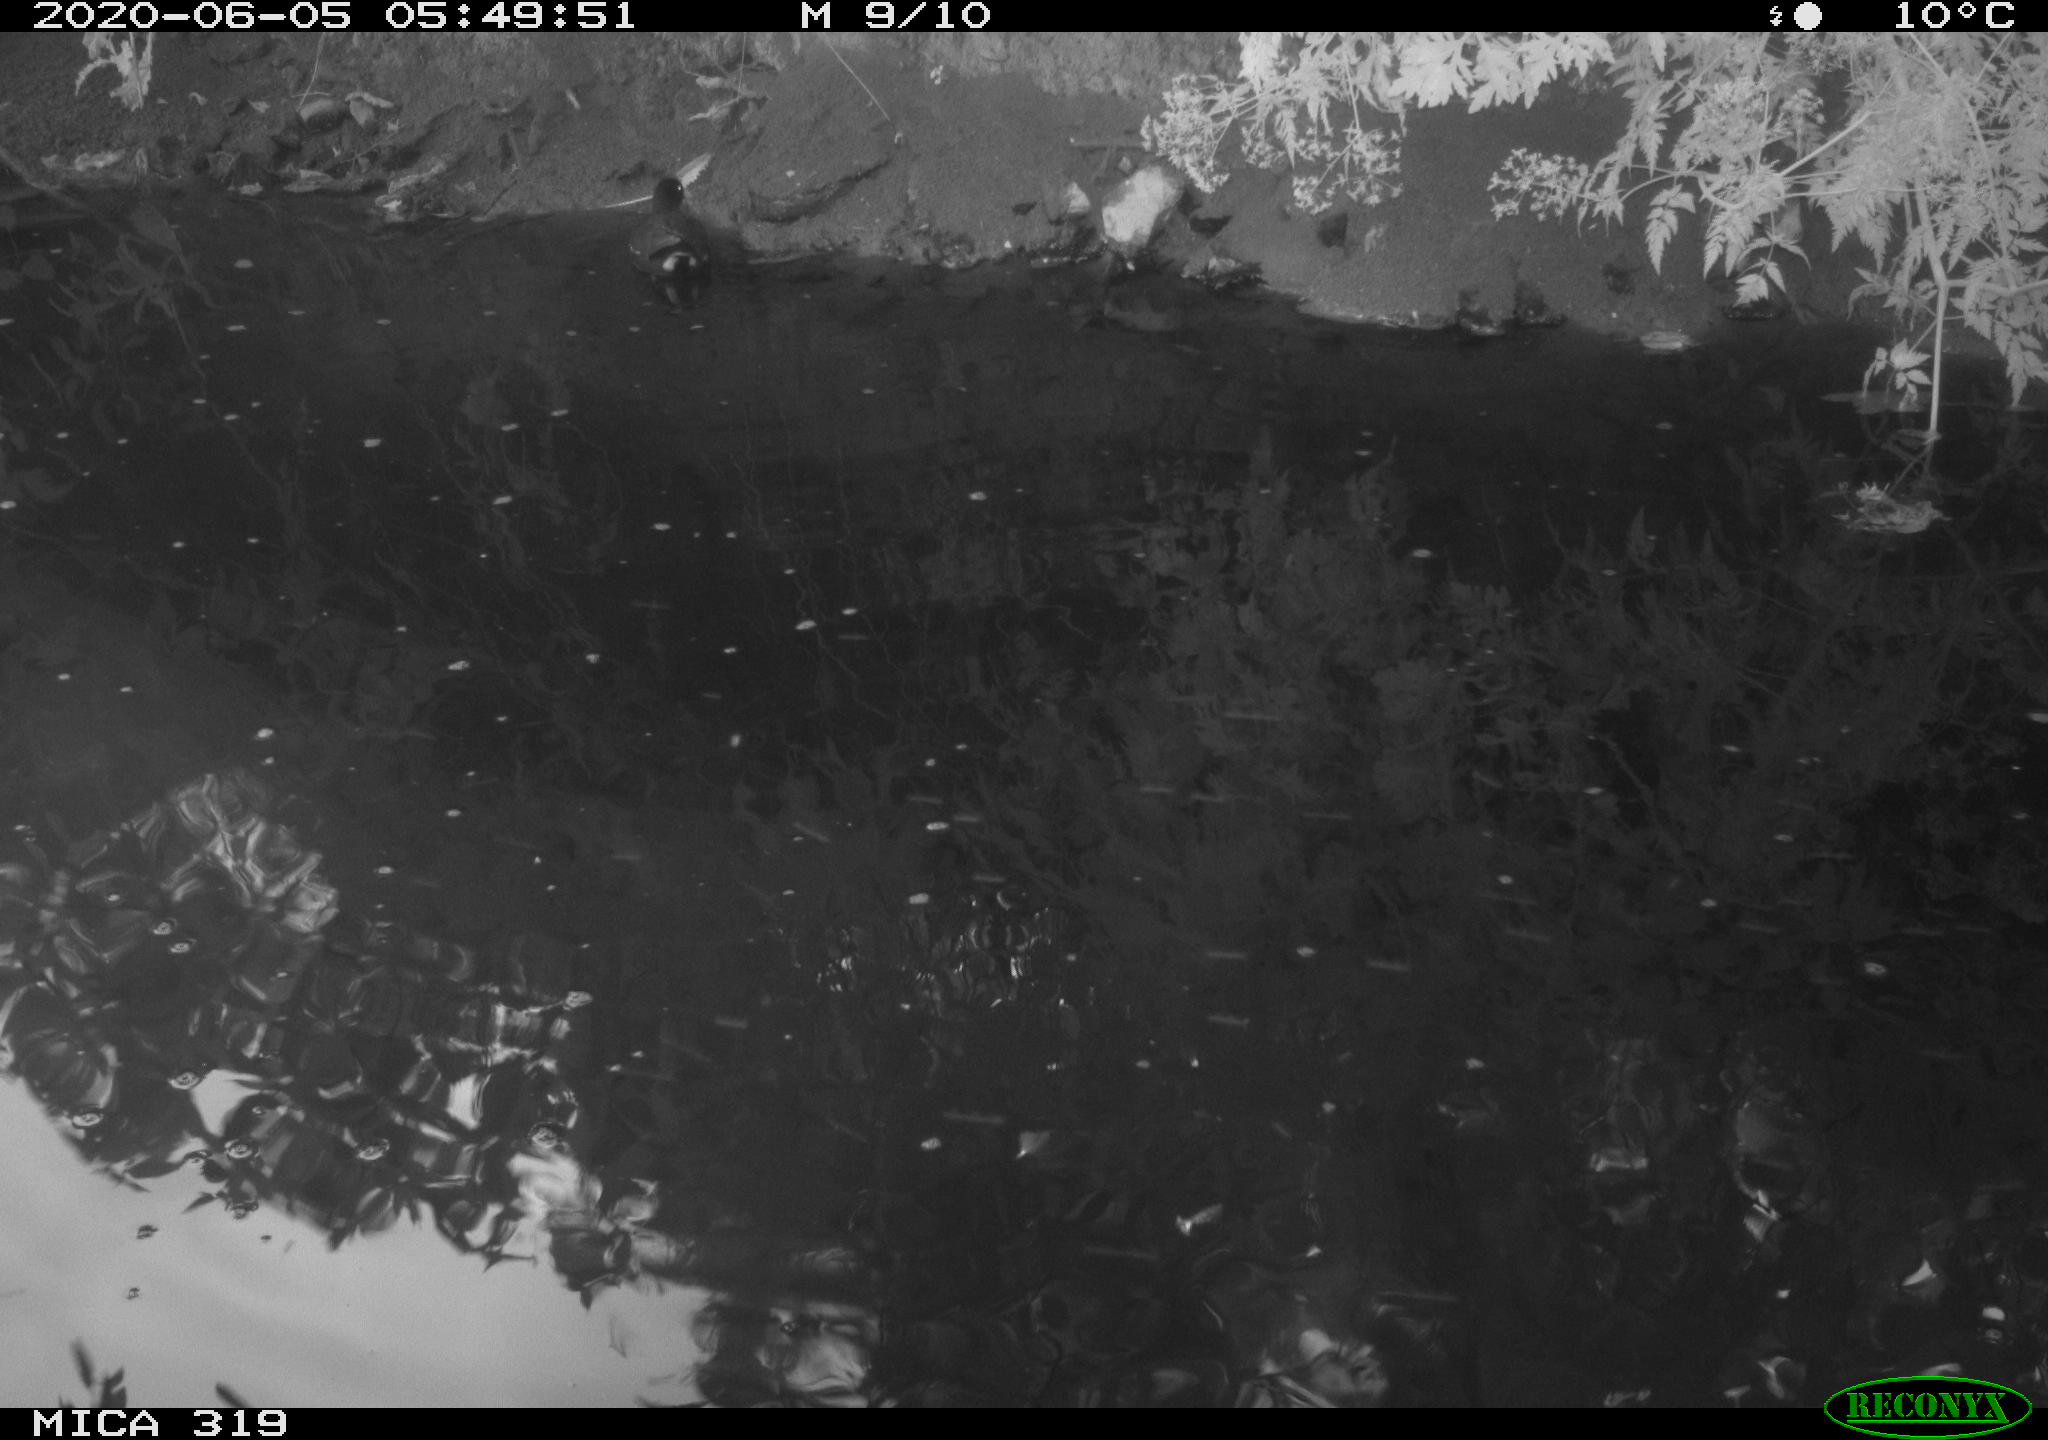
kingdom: Animalia
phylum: Chordata
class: Aves
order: Gruiformes
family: Rallidae
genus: Gallinula
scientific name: Gallinula chloropus
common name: Common moorhen
